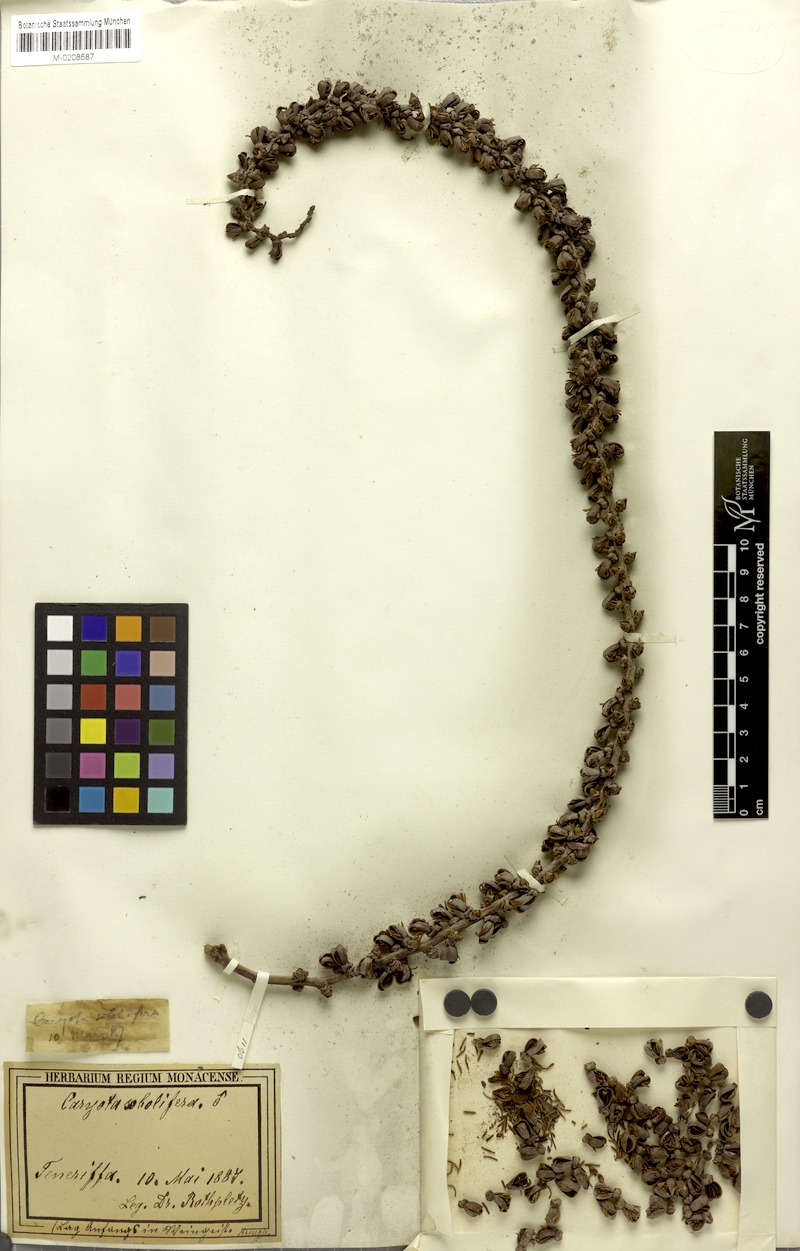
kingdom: Plantae
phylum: Tracheophyta
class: Liliopsida
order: Arecales
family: Arecaceae
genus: Caryota
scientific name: Caryota mitis
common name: Burmese fishtail palm
